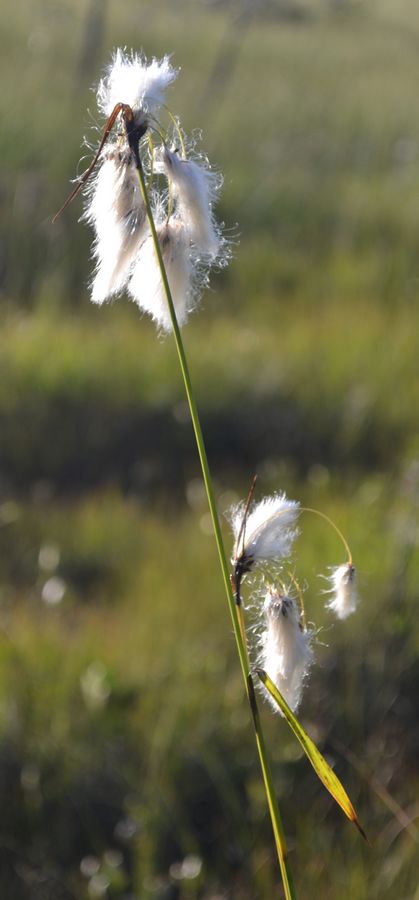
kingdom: Plantae
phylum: Tracheophyta
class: Liliopsida
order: Poales
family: Cyperaceae
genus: Eriophorum
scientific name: Eriophorum latifolium
